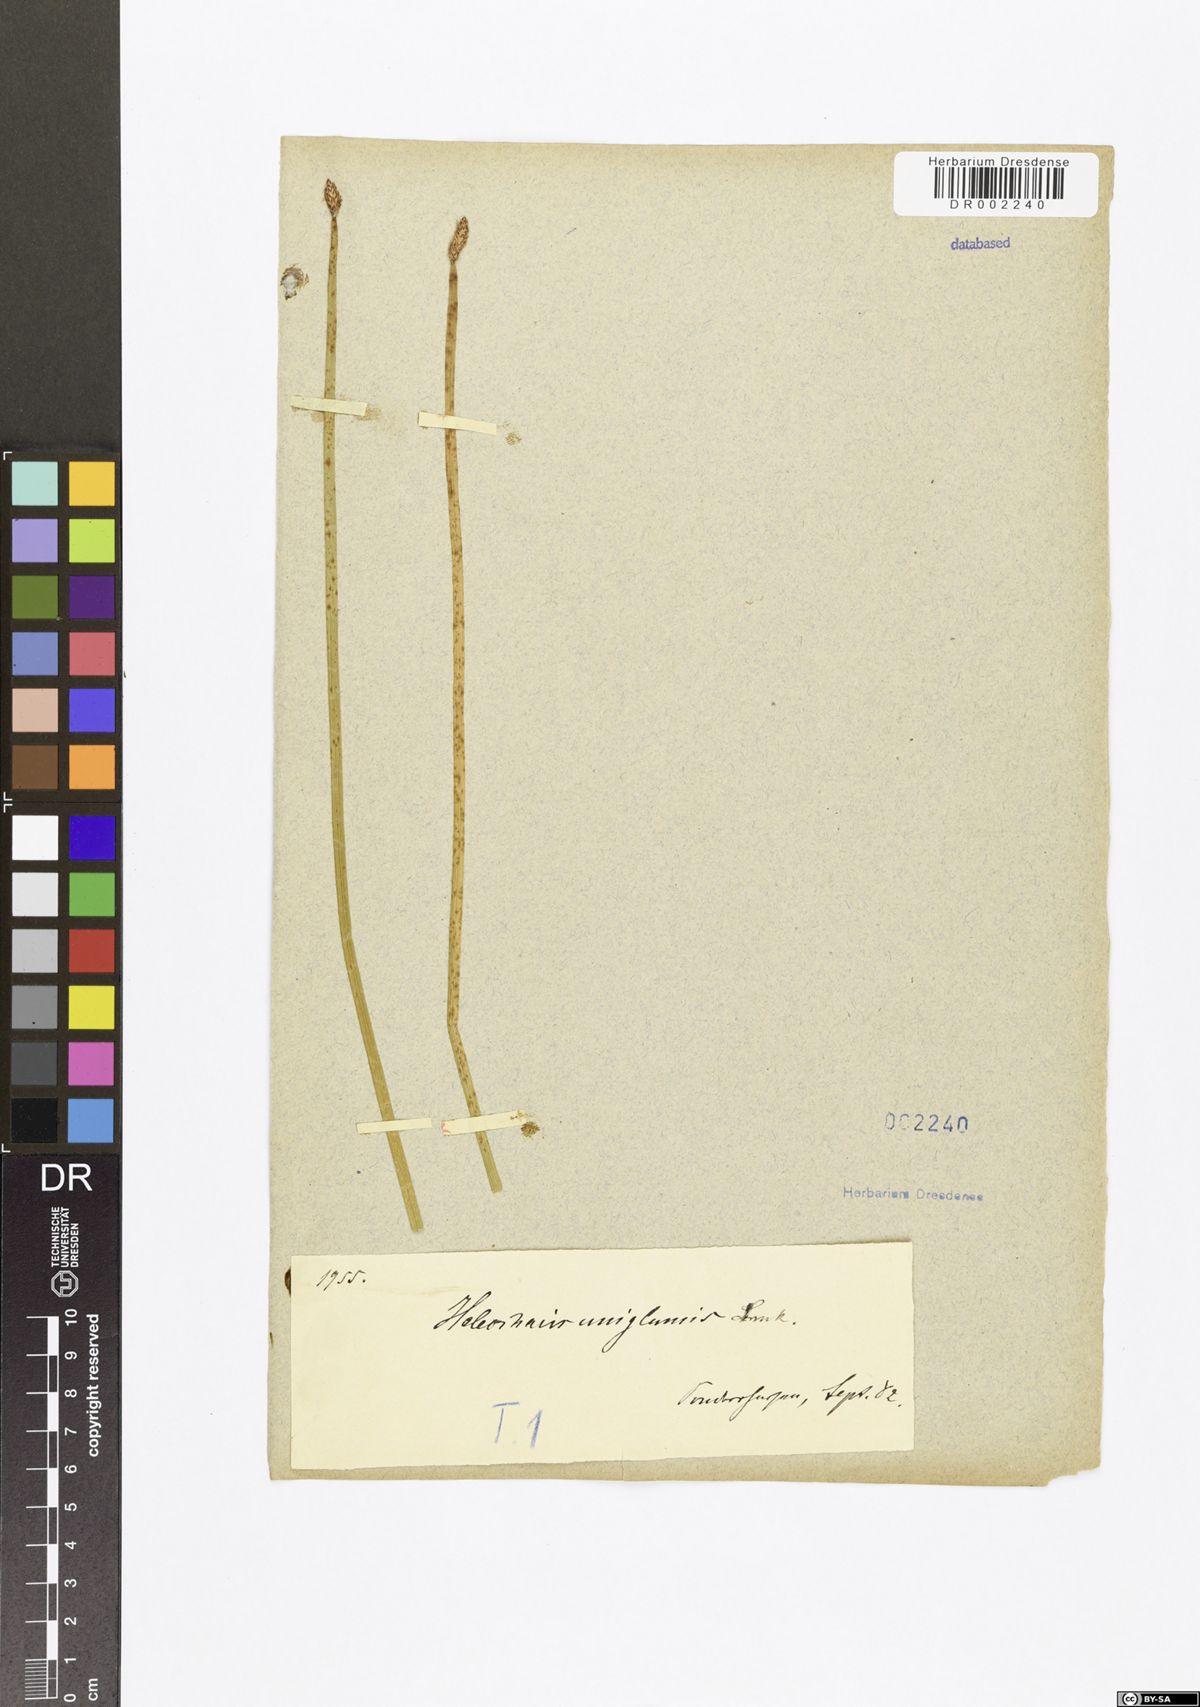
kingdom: Plantae
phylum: Tracheophyta
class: Liliopsida
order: Poales
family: Cyperaceae
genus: Eleocharis
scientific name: Eleocharis uniglumis
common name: Slender spike-rush
